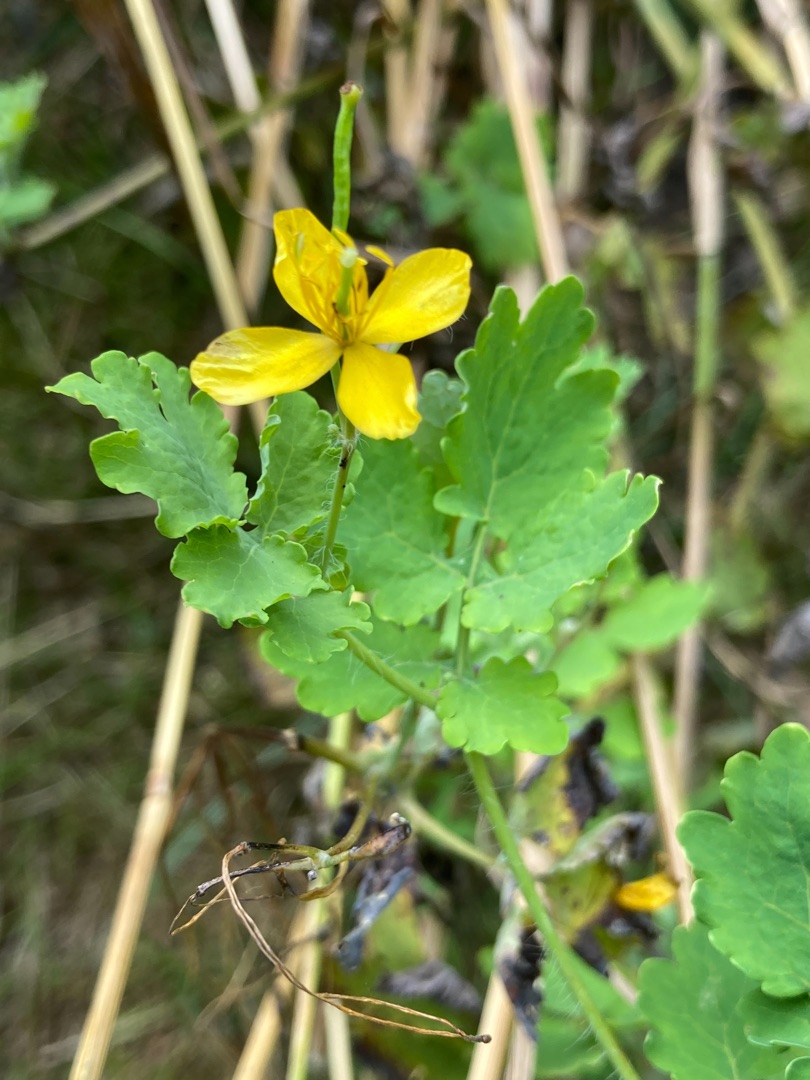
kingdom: Plantae
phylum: Tracheophyta
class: Magnoliopsida
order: Ranunculales
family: Papaveraceae
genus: Chelidonium
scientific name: Chelidonium majus
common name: Svaleurt
